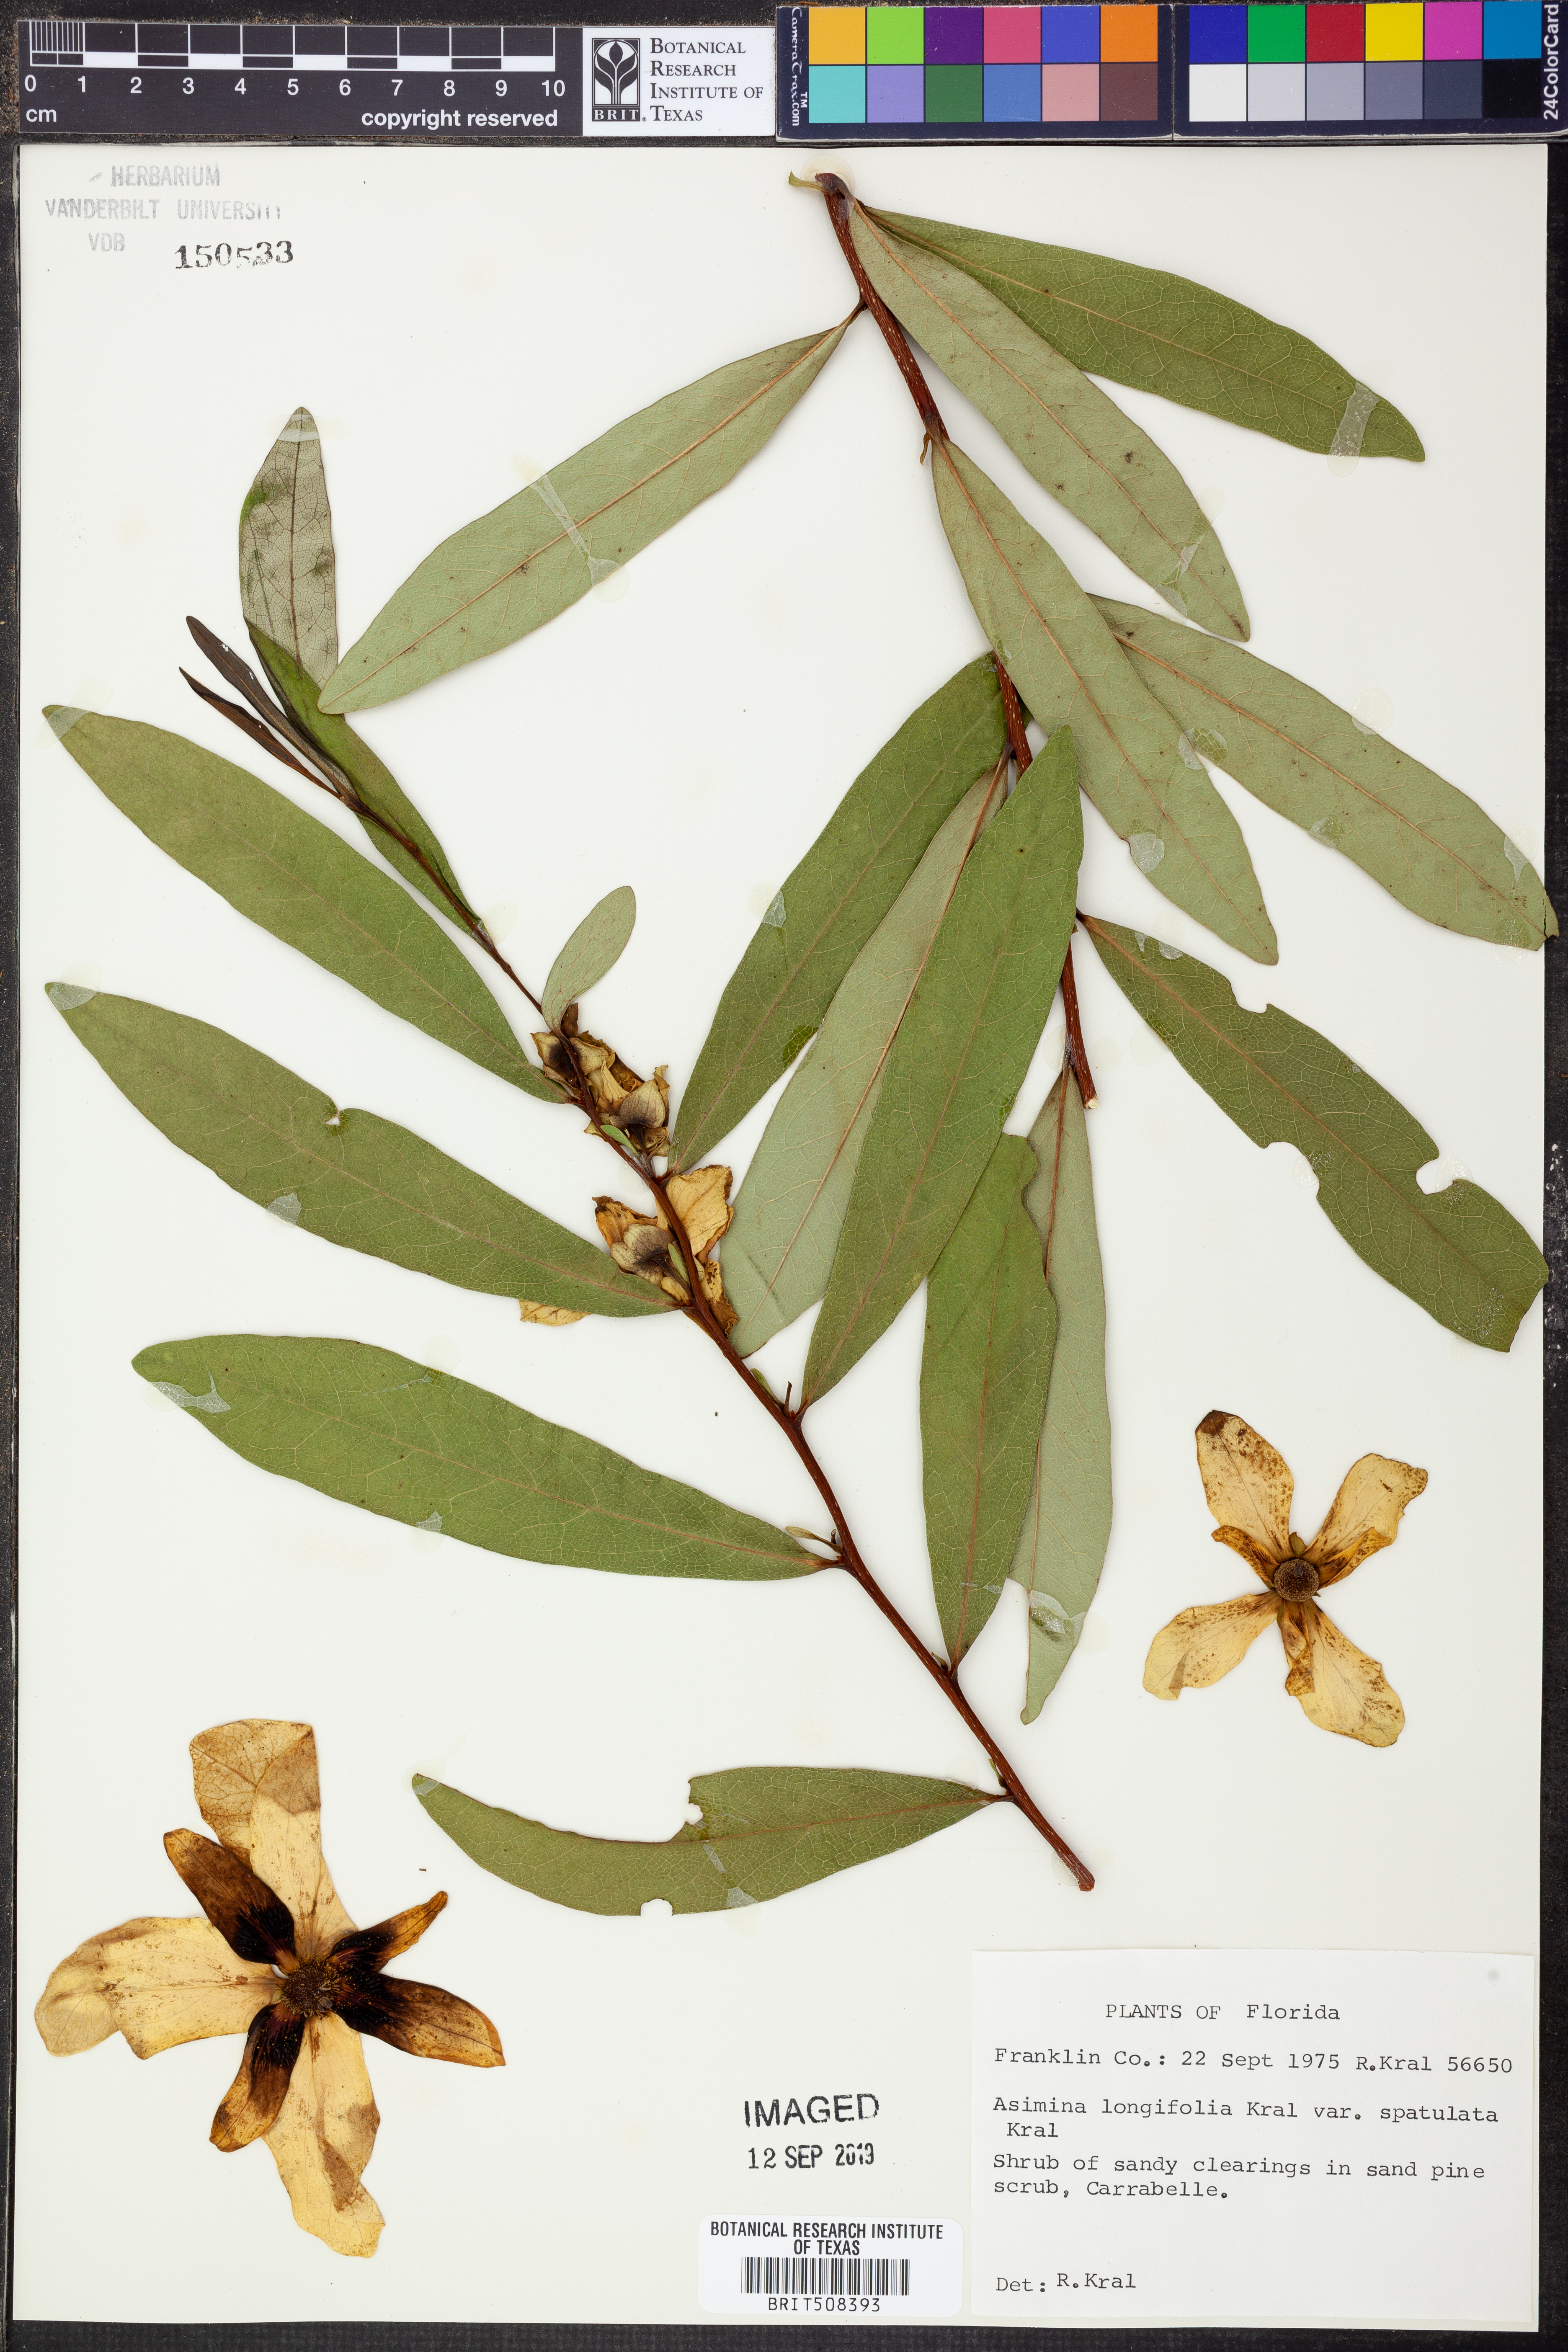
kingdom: Plantae
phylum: Tracheophyta
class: Magnoliopsida
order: Magnoliales
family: Annonaceae
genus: Asimina
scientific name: Asimina longifolia
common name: Polecatbush
